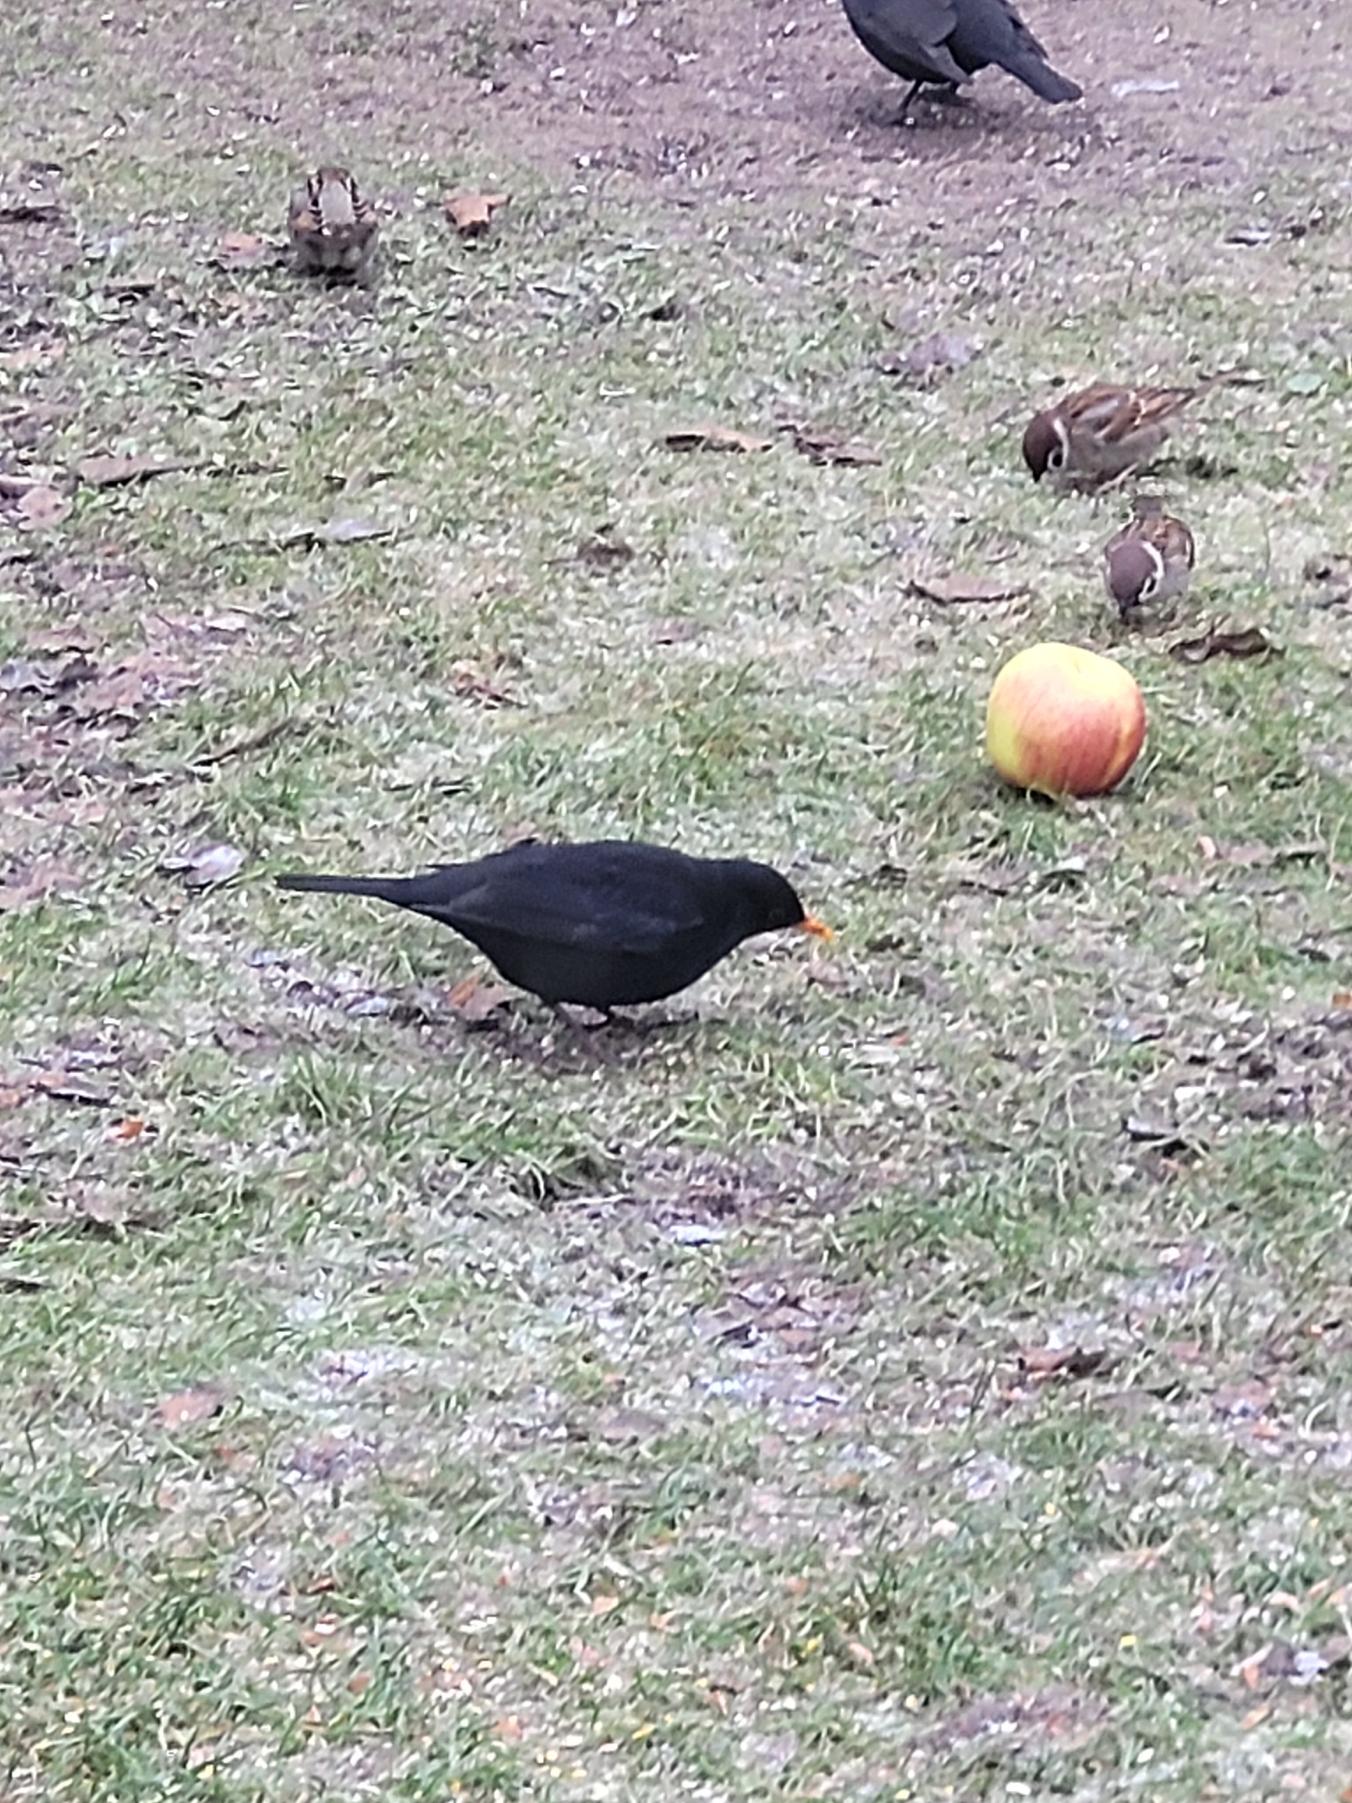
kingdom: Animalia
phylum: Chordata
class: Aves
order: Passeriformes
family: Turdidae
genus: Turdus
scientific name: Turdus merula
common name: Solsort
